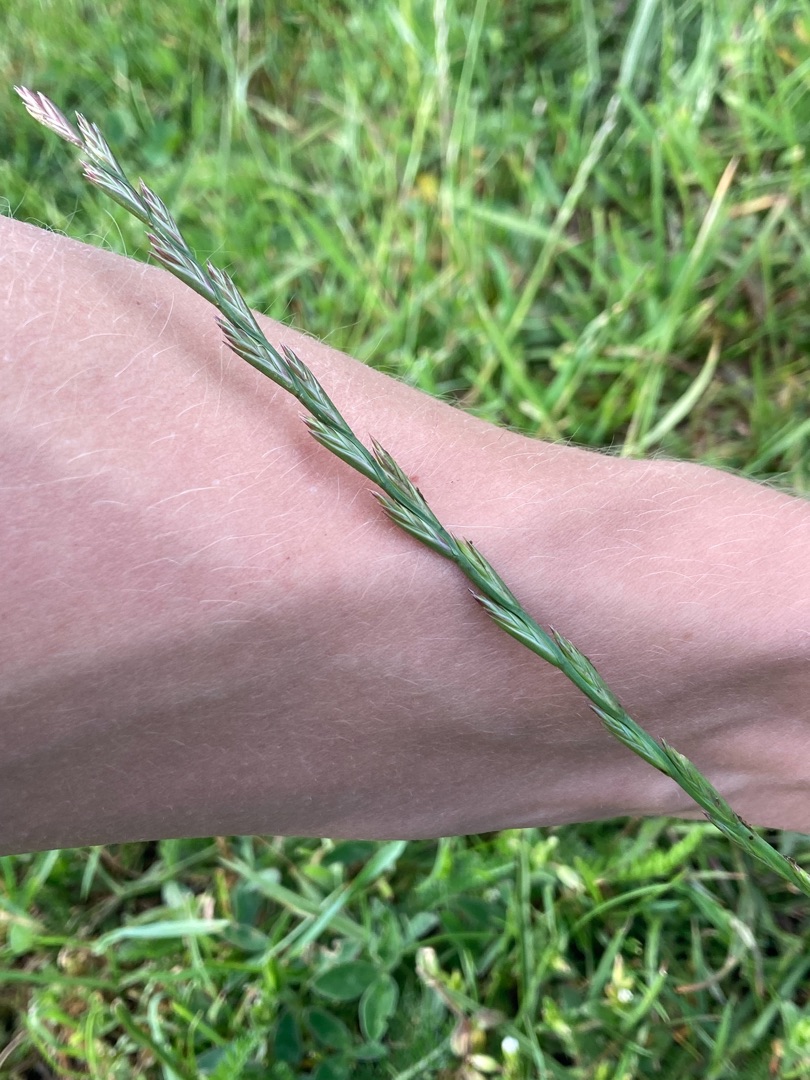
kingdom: Plantae
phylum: Tracheophyta
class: Liliopsida
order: Poales
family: Poaceae
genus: Lolium
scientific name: Lolium perenne
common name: Almindelig rajgræs
